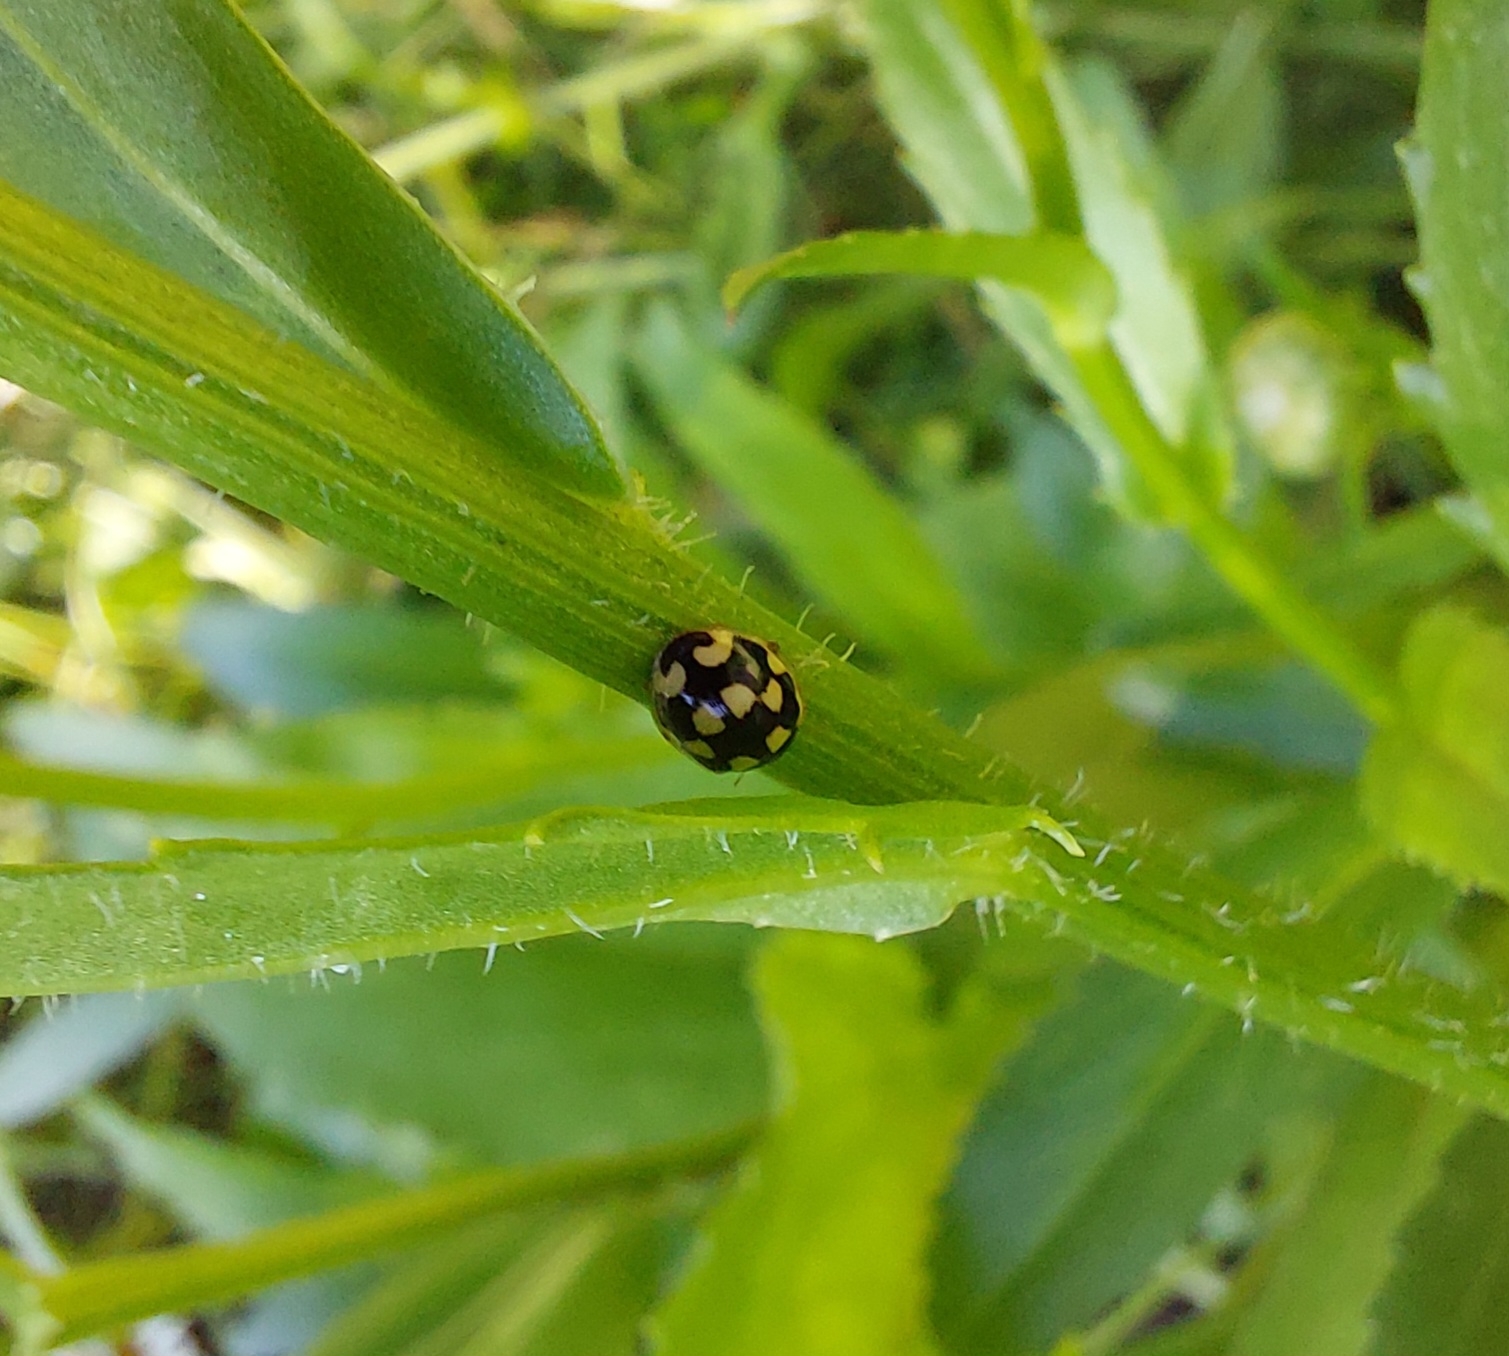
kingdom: Animalia
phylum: Arthropoda
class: Insecta
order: Coleoptera
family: Coccinellidae
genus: Propylaea
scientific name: Propylaea quatuordecimpunctata
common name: Skakbræt
